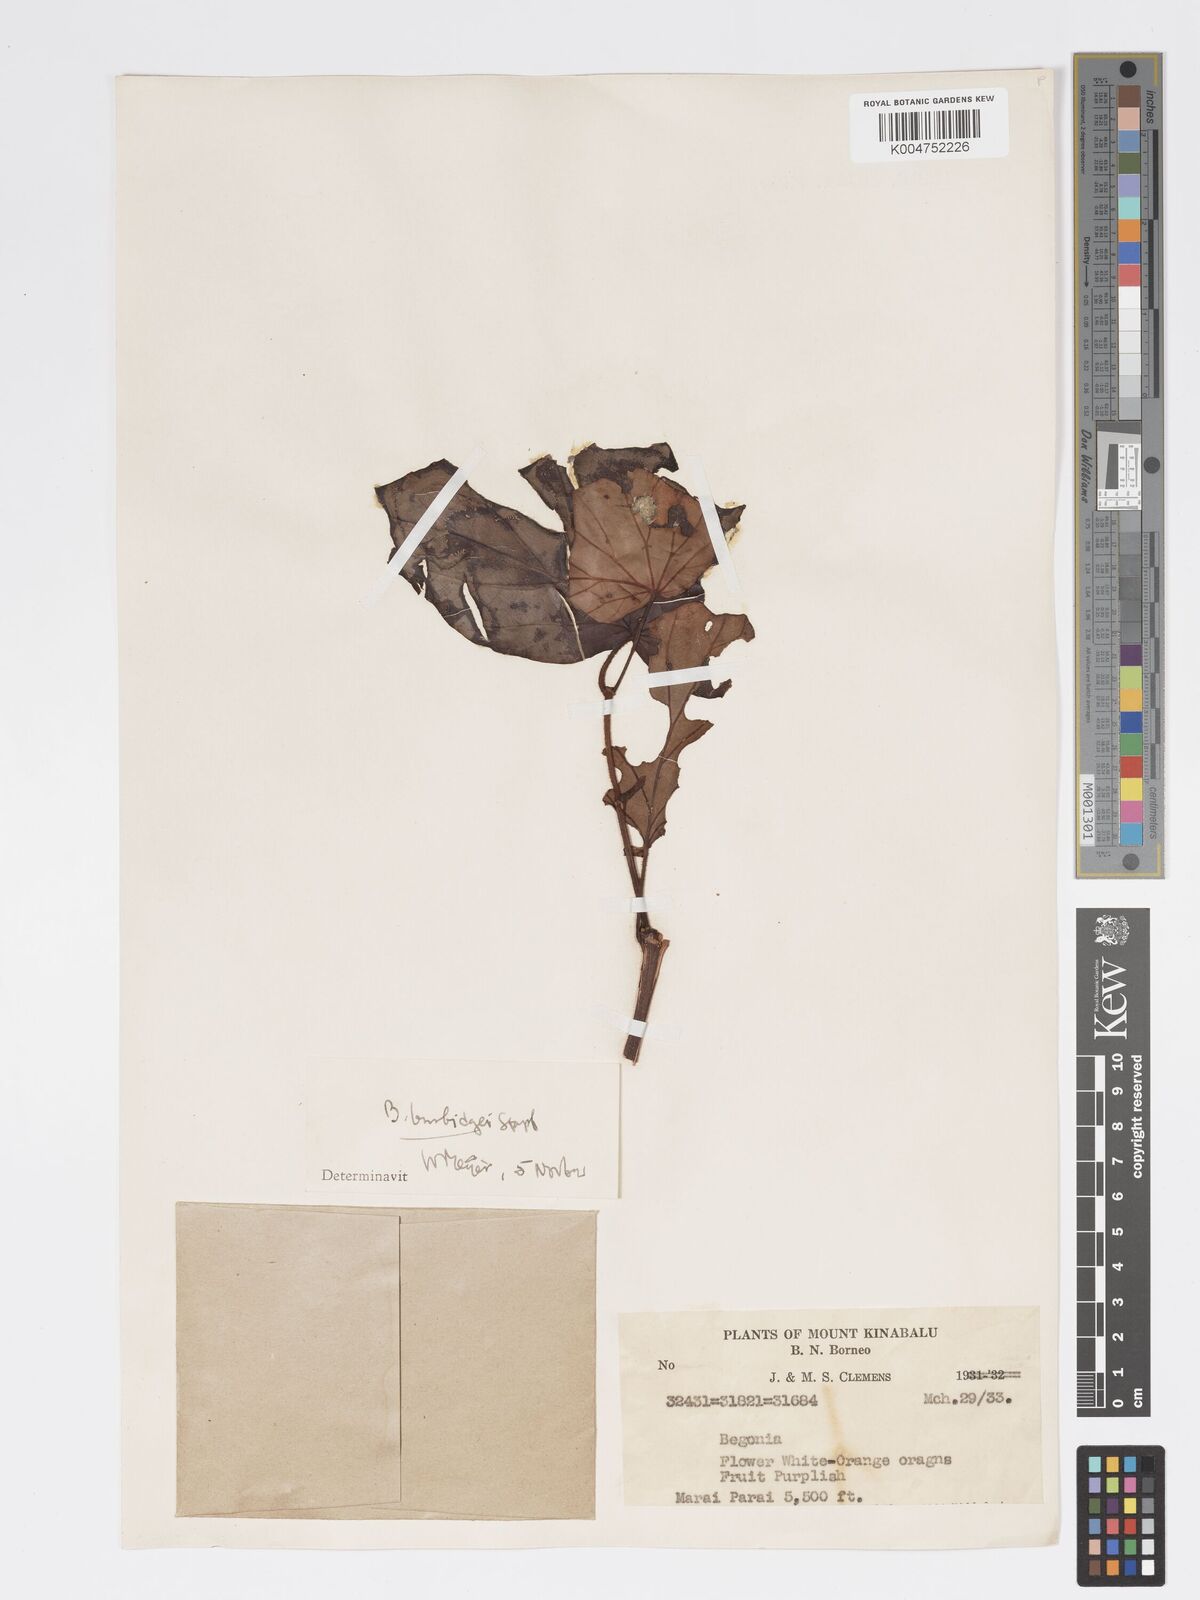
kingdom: Plantae
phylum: Tracheophyta
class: Magnoliopsida
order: Cucurbitales
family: Begoniaceae
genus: Begonia
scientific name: Begonia burbidgei
